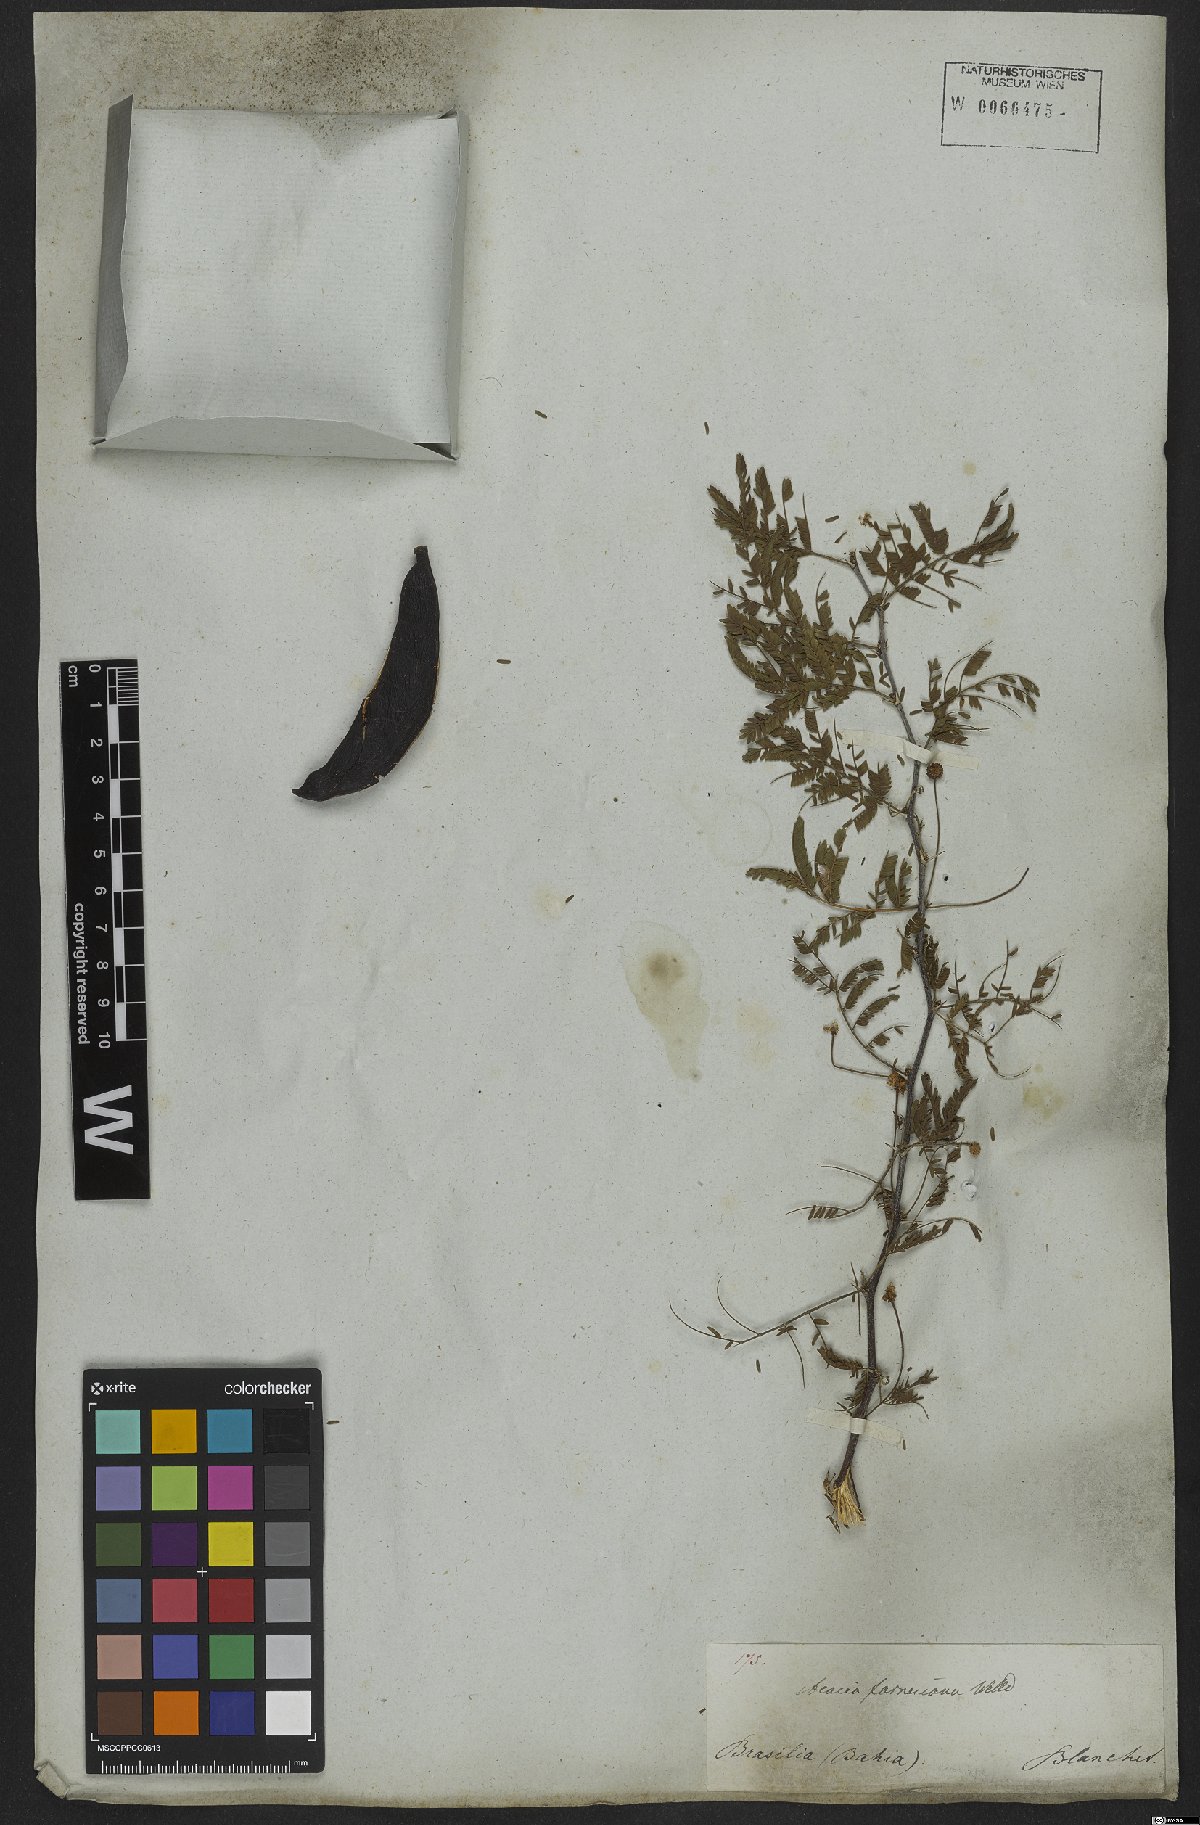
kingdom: Plantae
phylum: Tracheophyta
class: Magnoliopsida
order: Fabales
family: Fabaceae
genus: Vachellia
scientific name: Vachellia farnesiana
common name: Sweet acacia
